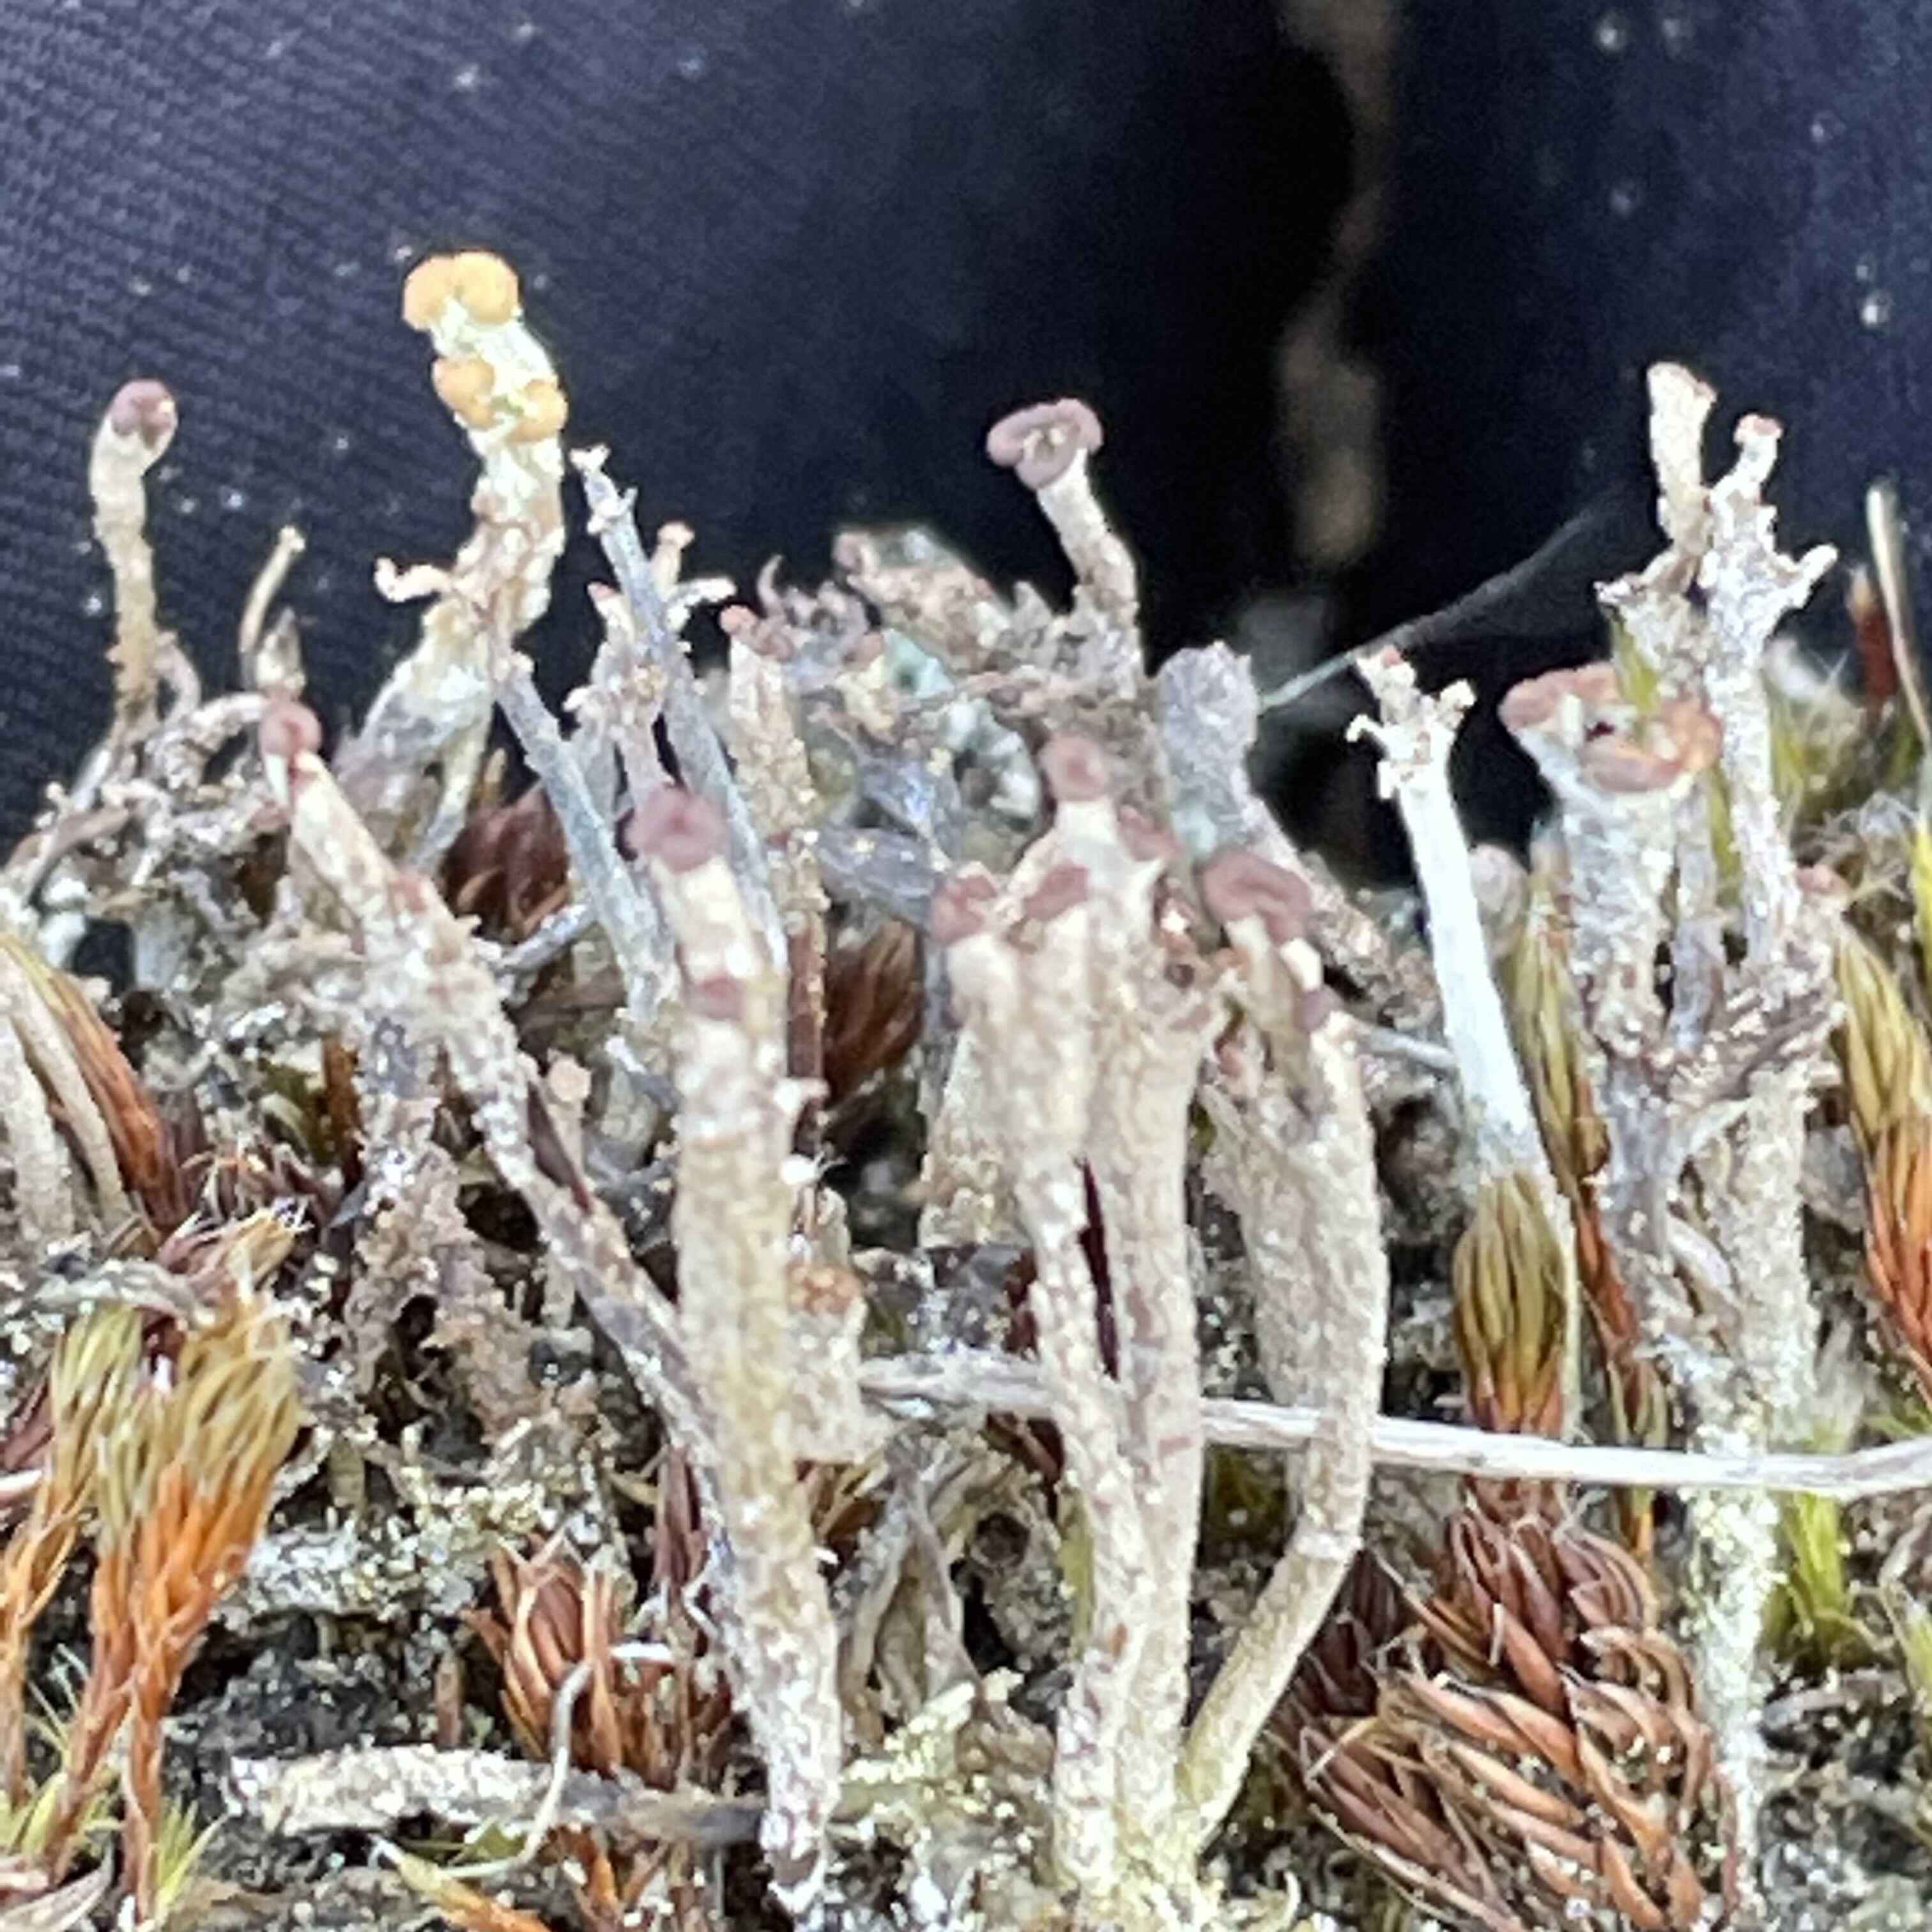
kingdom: Fungi
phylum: Ascomycota
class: Lecanoromycetes
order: Lecanorales
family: Cladoniaceae
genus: Cladonia
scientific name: Cladonia ramulosa
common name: kliddet bægerlav
